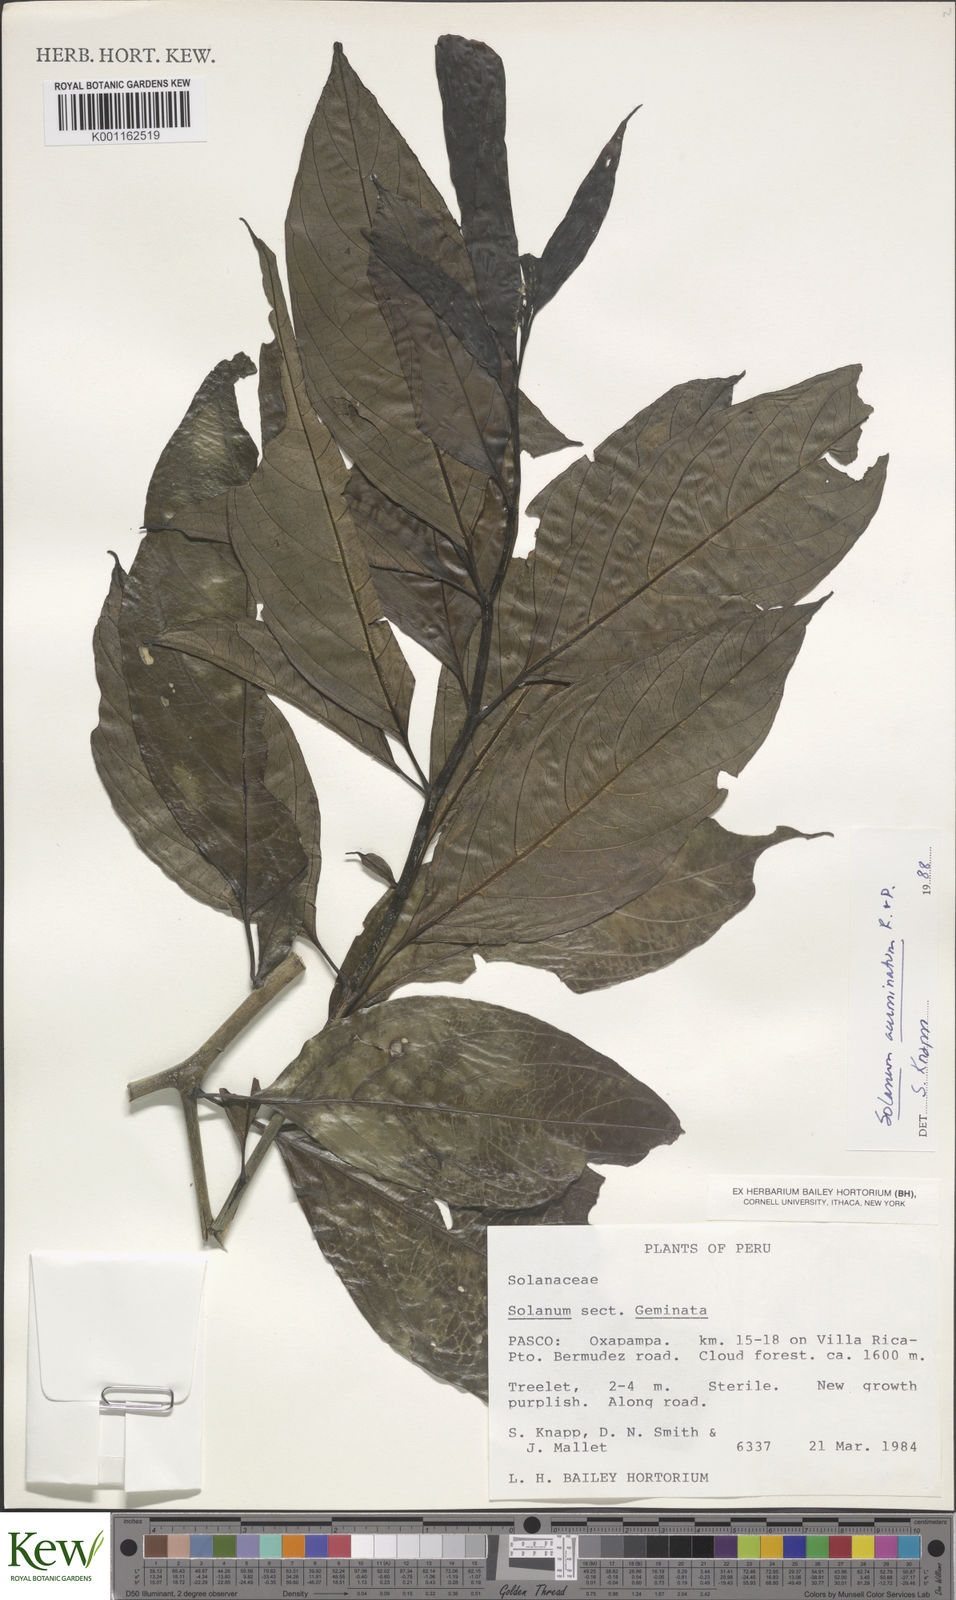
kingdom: Plantae
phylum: Tracheophyta
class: Magnoliopsida
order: Solanales
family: Solanaceae
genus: Solanum
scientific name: Solanum acuminatum
